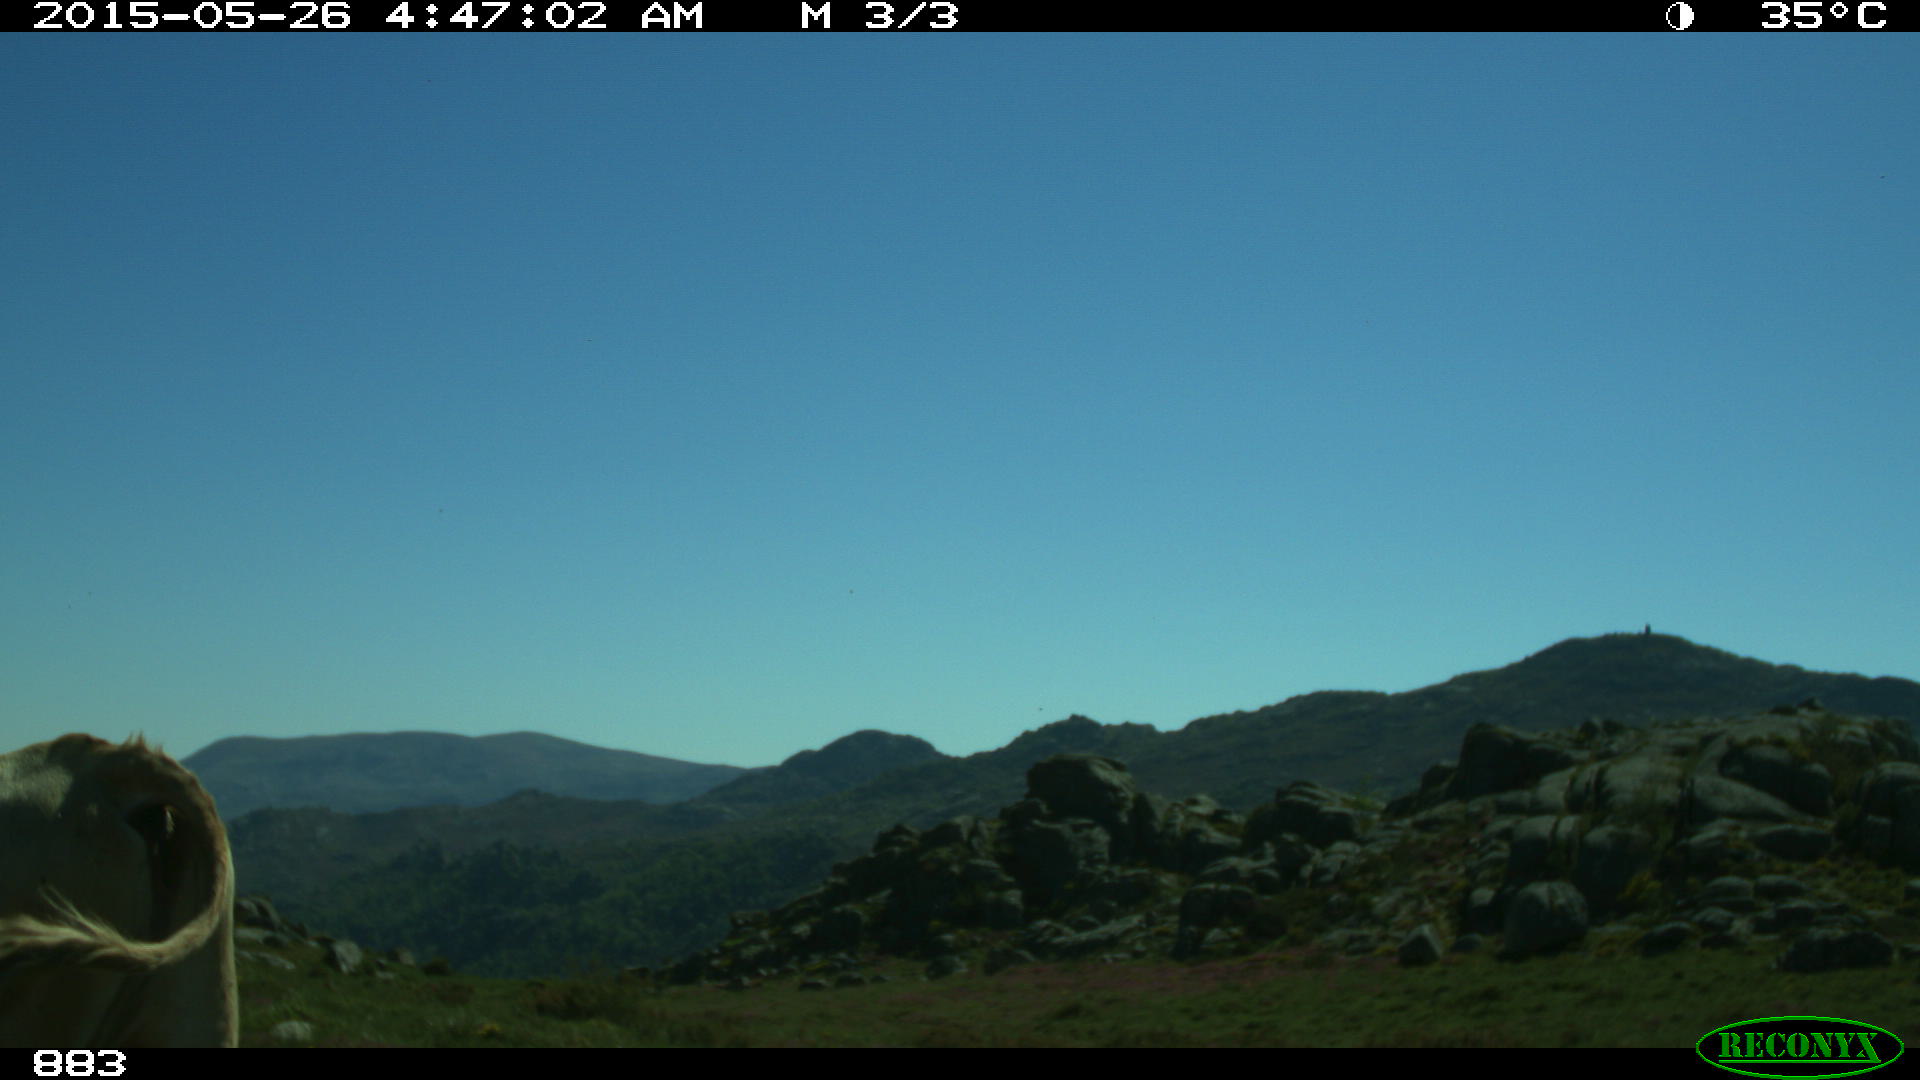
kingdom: Animalia
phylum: Chordata
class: Mammalia
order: Artiodactyla
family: Bovidae
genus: Bos
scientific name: Bos taurus
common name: Domesticated cattle
